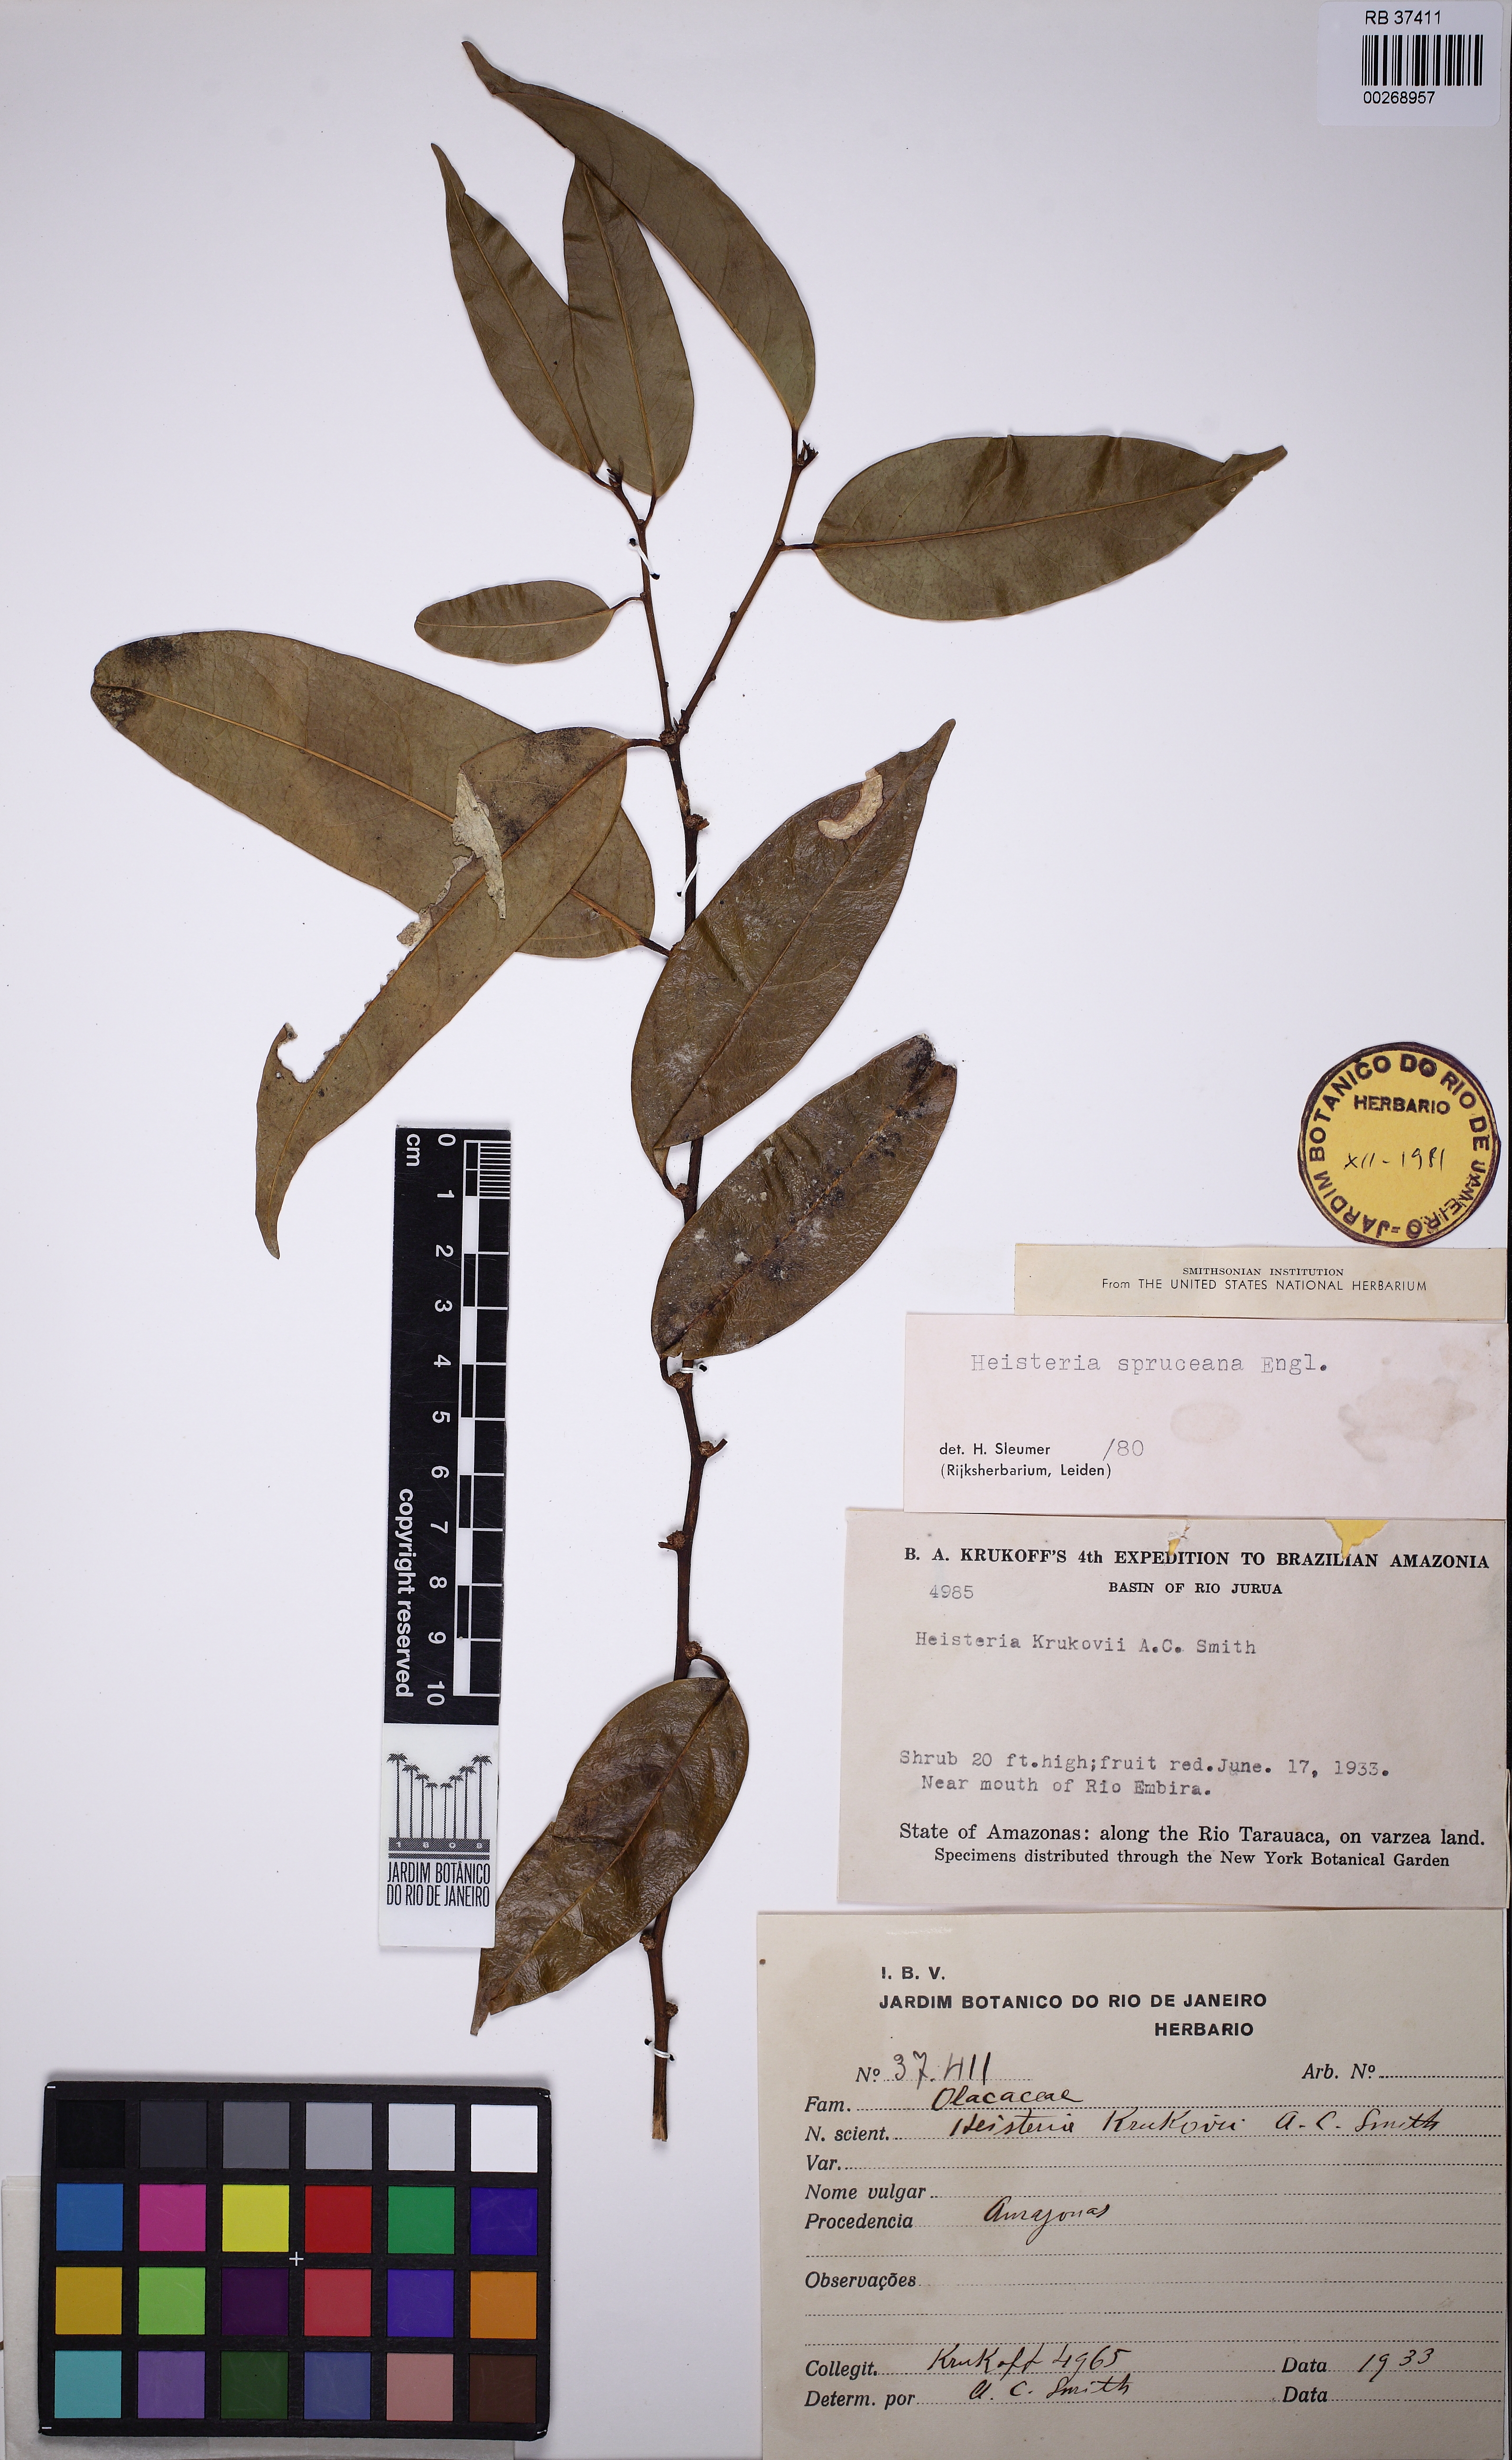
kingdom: Plantae
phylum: Tracheophyta
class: Magnoliopsida
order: Santalales
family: Erythropalaceae
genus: Heisteria
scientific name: Heisteria spruceana
